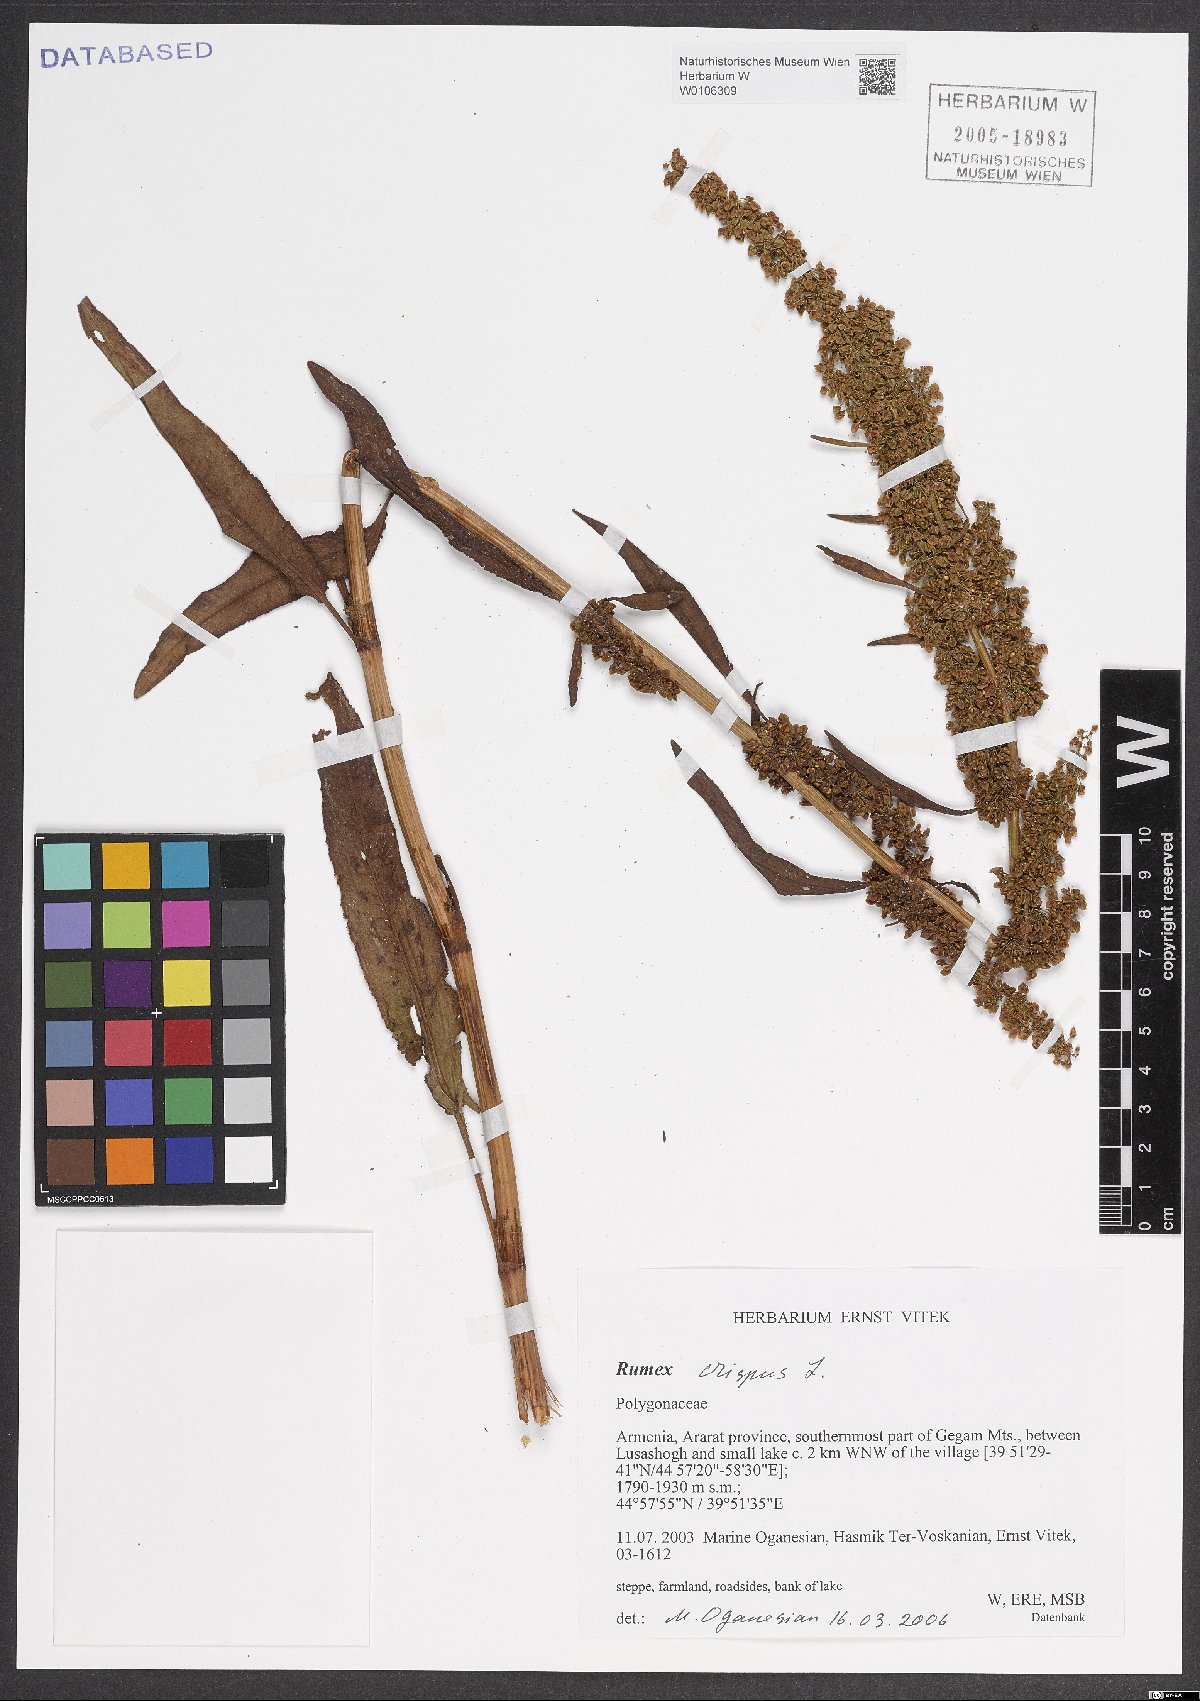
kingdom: Plantae
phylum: Tracheophyta
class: Magnoliopsida
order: Caryophyllales
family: Polygonaceae
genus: Rumex
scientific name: Rumex crispus
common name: Curled dock
